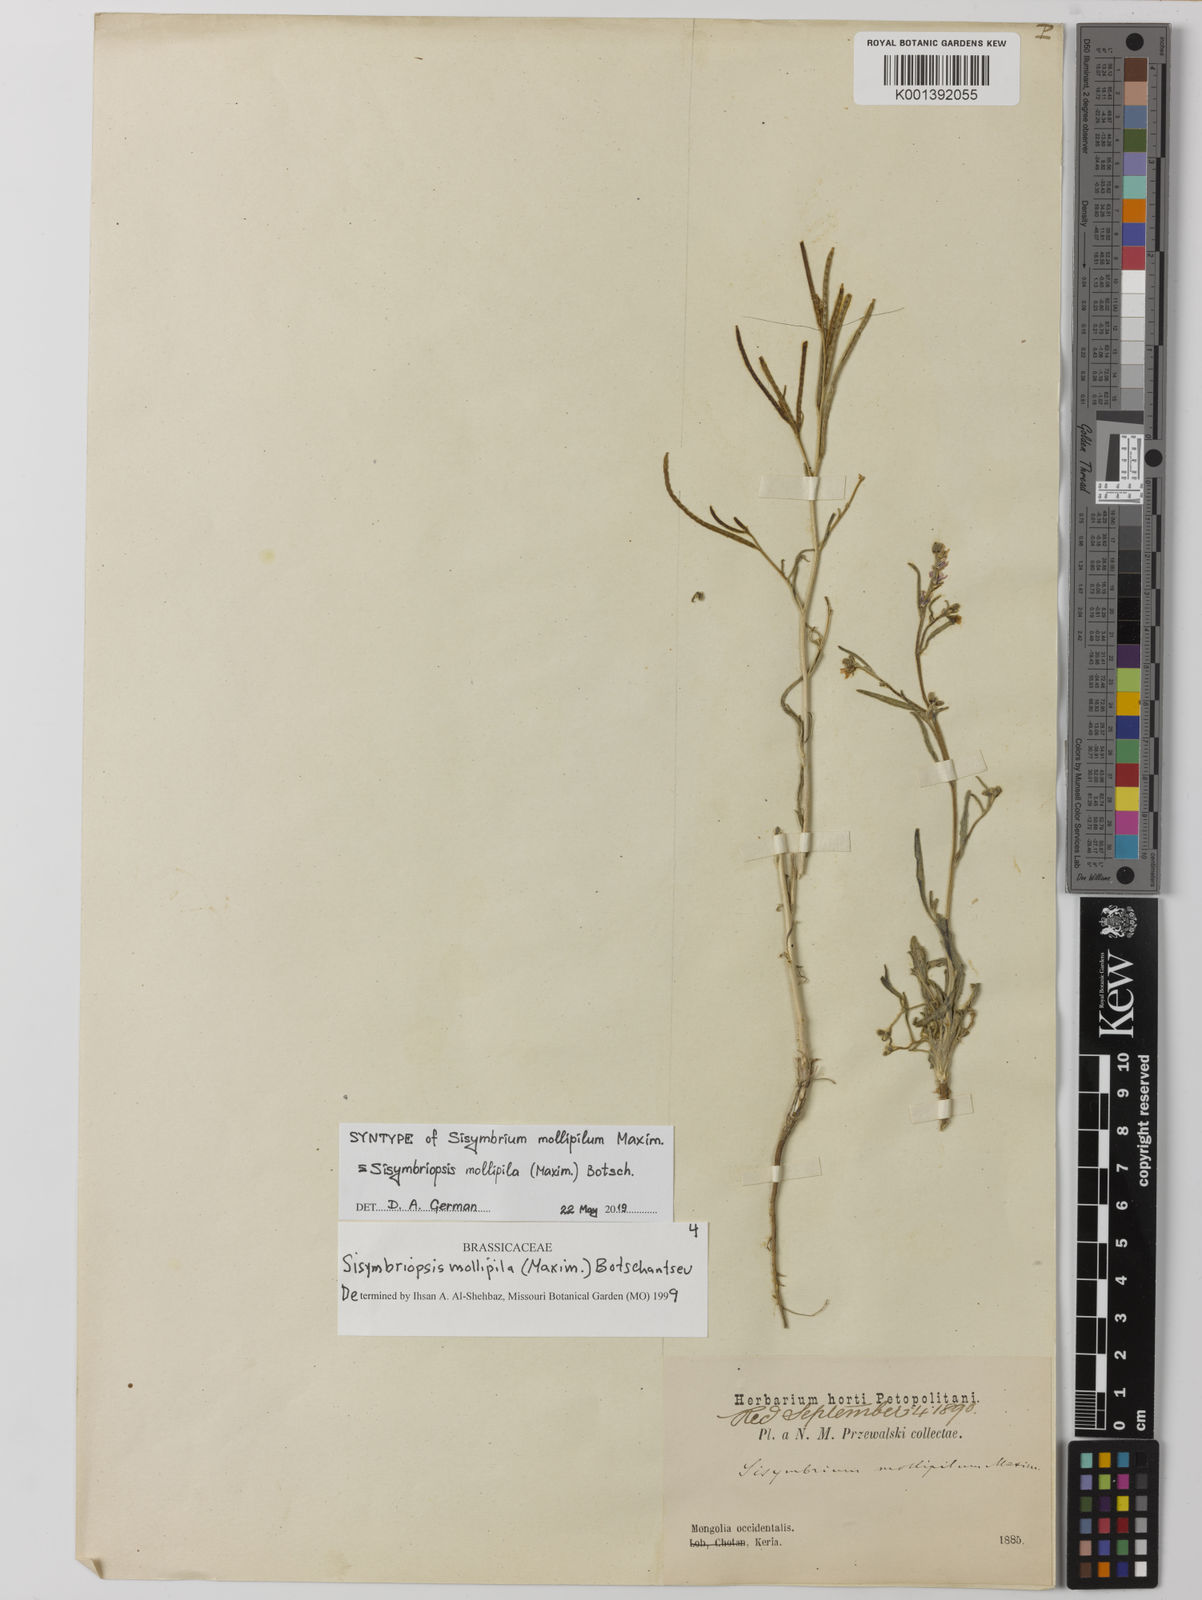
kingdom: Plantae
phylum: Tracheophyta
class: Magnoliopsida
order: Brassicales
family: Brassicaceae
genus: Sisymbriopsis
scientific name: Sisymbriopsis mollipila
